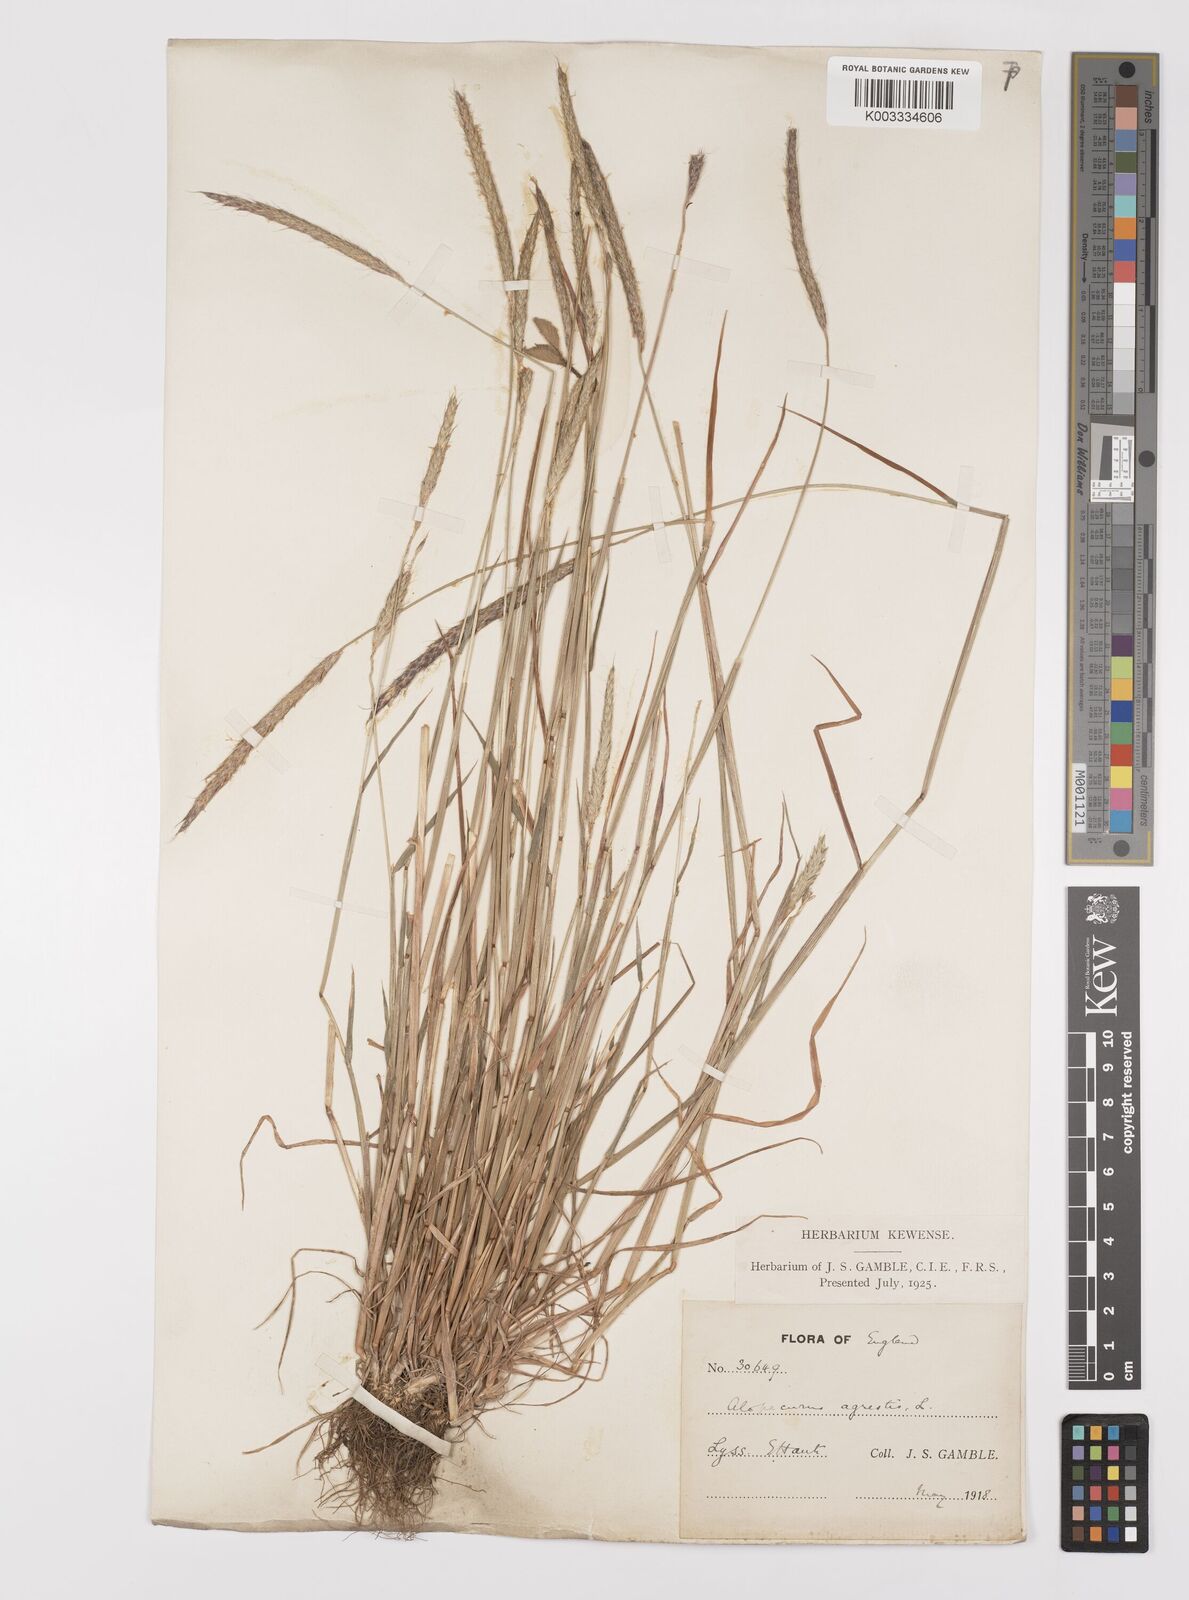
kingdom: Plantae
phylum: Tracheophyta
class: Liliopsida
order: Poales
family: Poaceae
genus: Alopecurus
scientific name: Alopecurus myosuroides
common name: Black-grass
